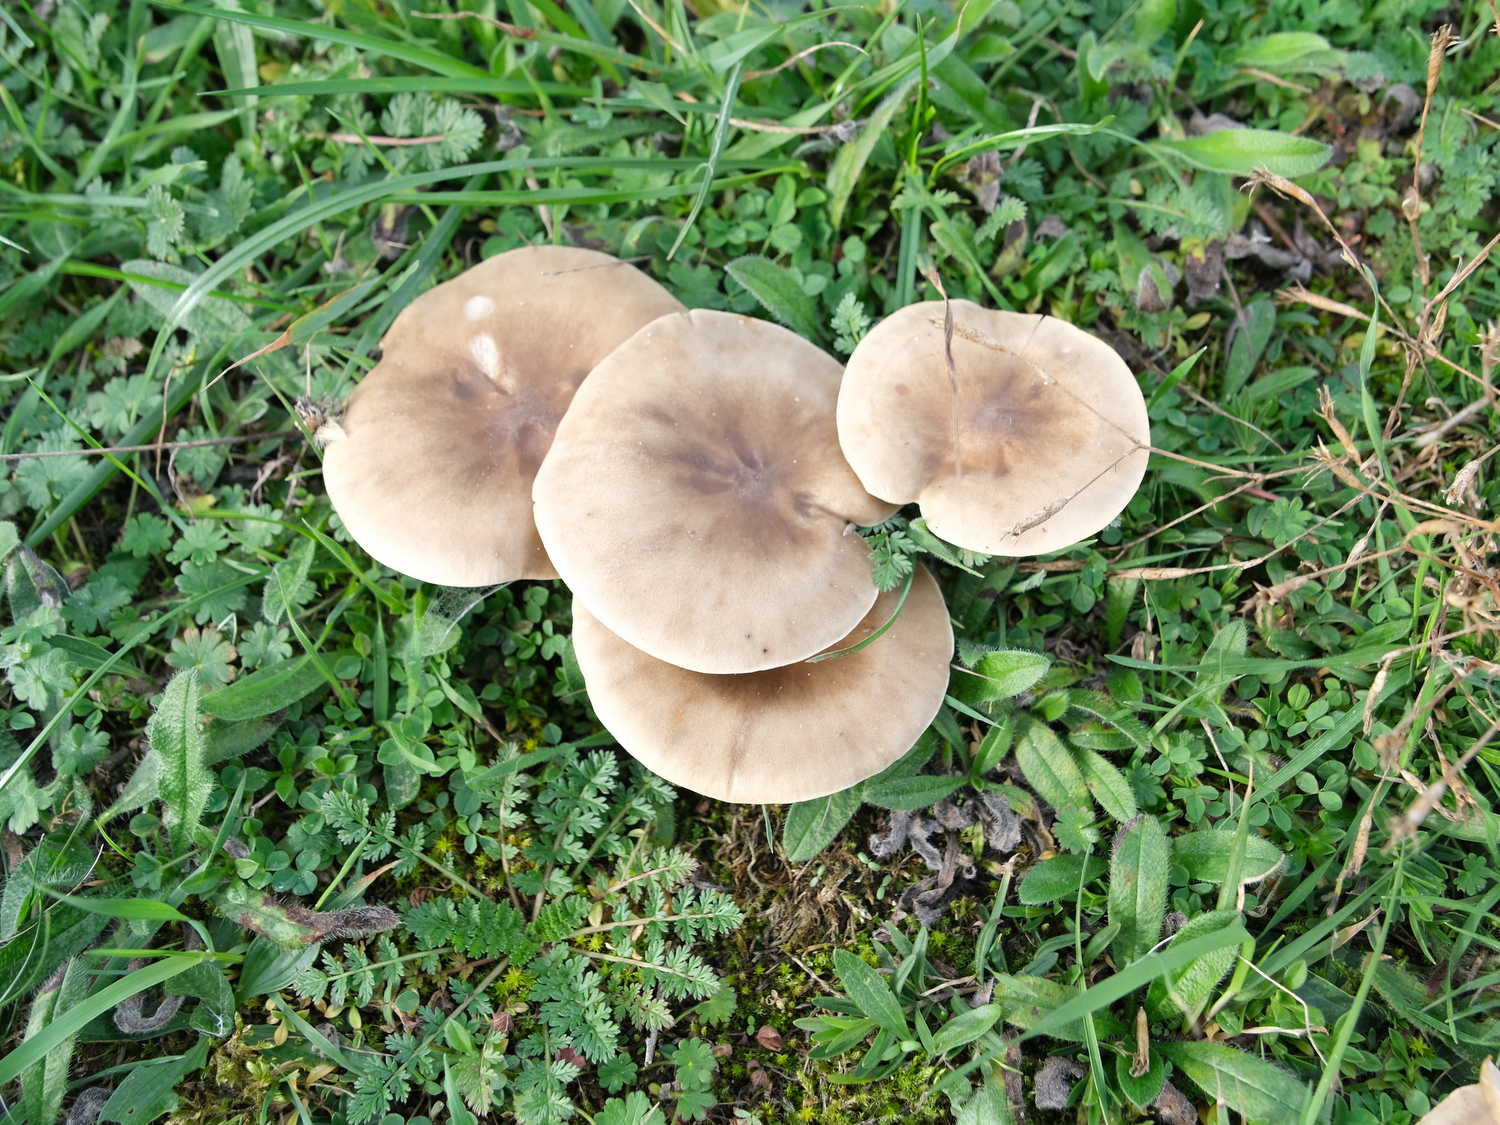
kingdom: Fungi
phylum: Basidiomycota
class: Agaricomycetes
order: Agaricales
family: Tricholomataceae
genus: Melanoleuca
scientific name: Melanoleuca
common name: munkehat
